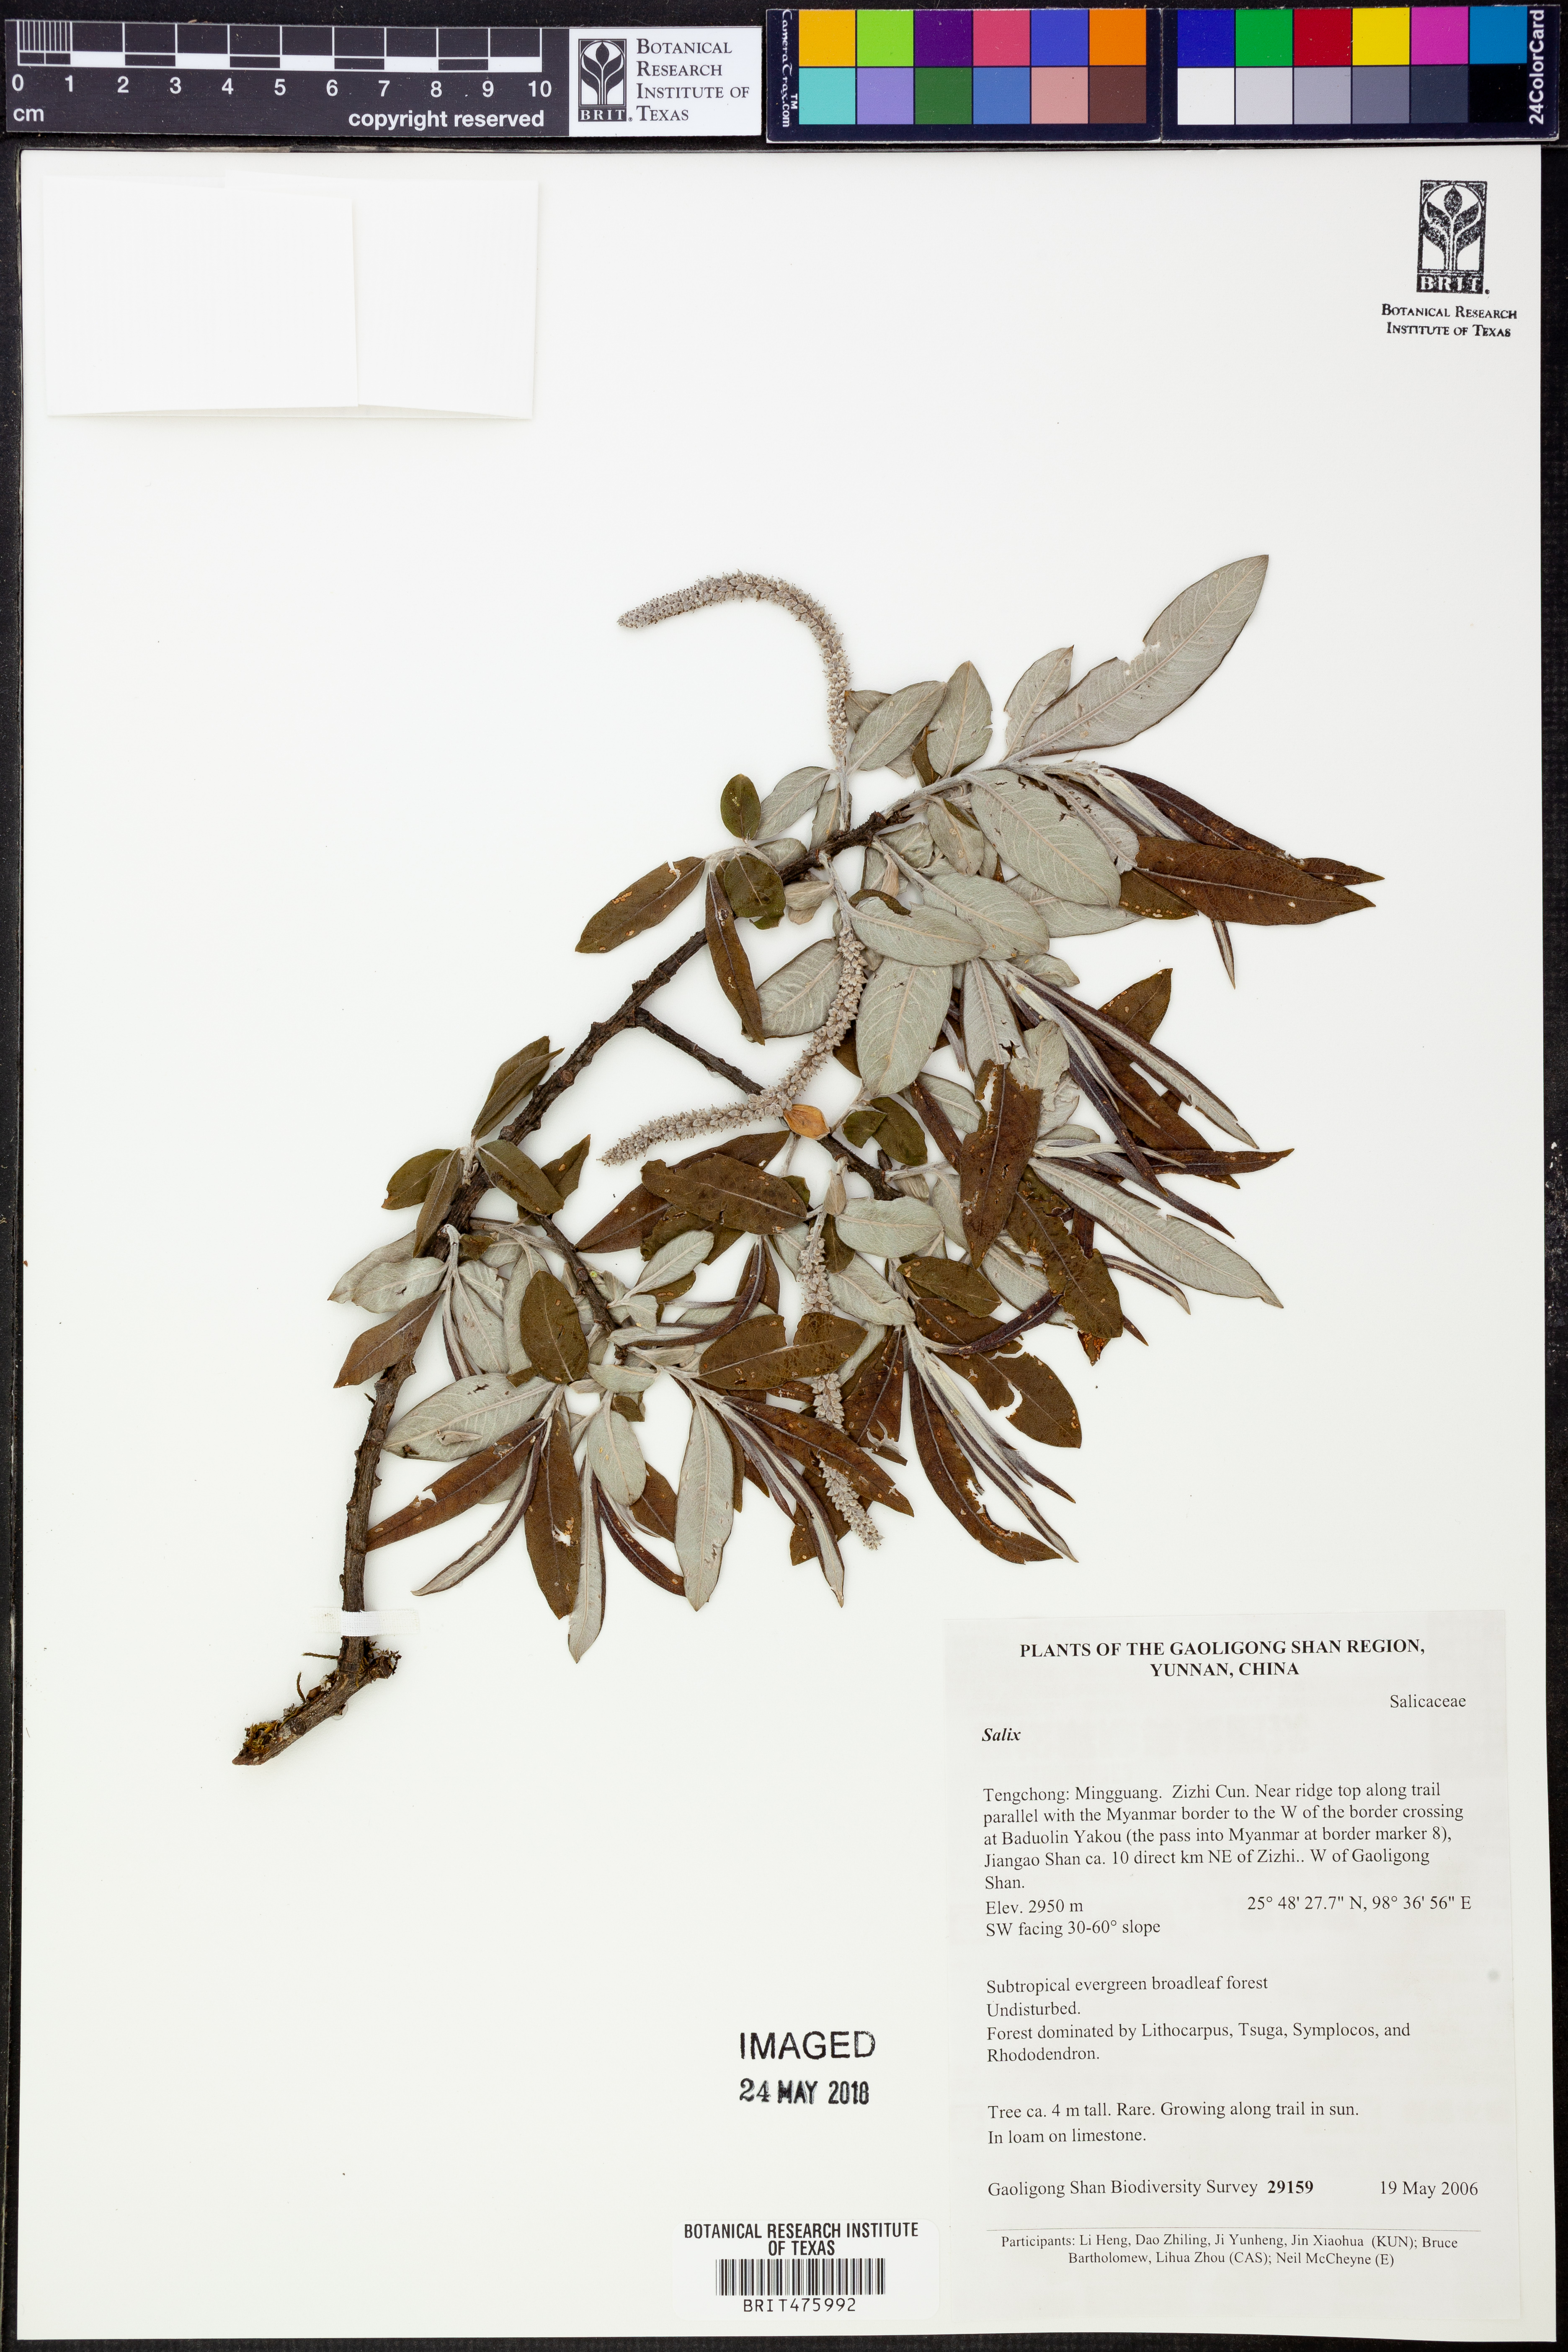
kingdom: Plantae
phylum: Tracheophyta
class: Magnoliopsida
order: Malpighiales
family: Salicaceae
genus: Salix
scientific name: Salix
